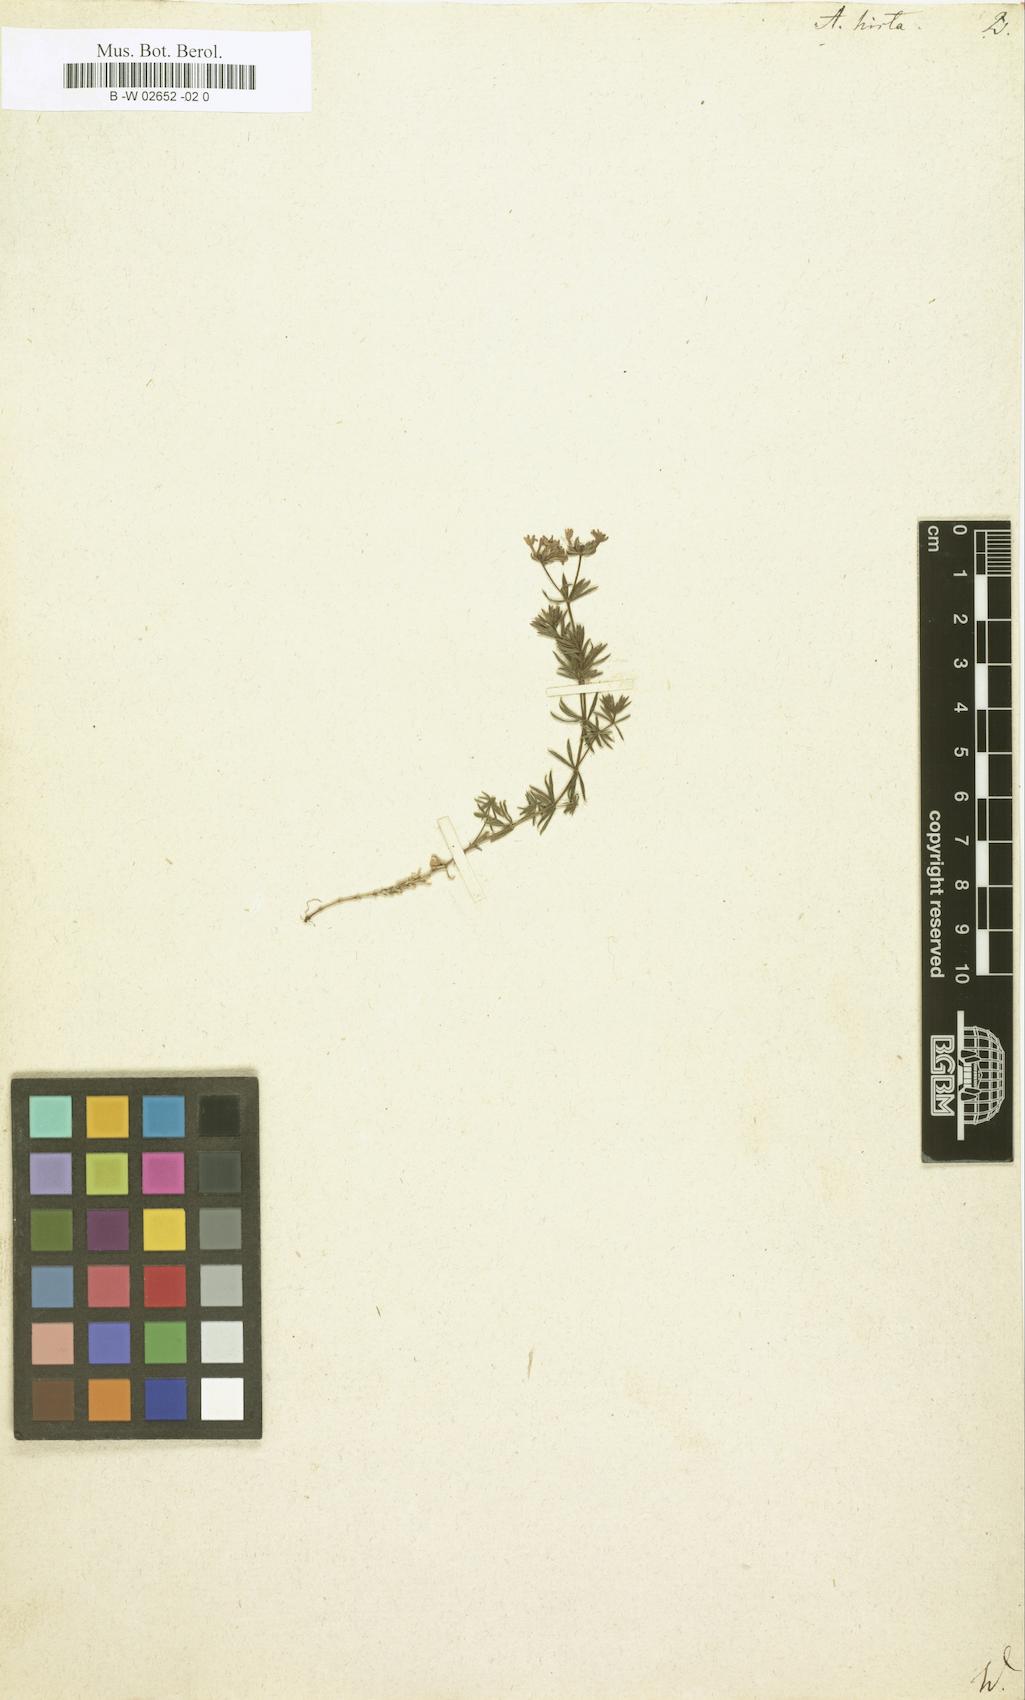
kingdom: Plantae
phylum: Tracheophyta
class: Magnoliopsida
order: Gentianales
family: Rubiaceae
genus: Hexaphylla
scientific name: Hexaphylla hirta
